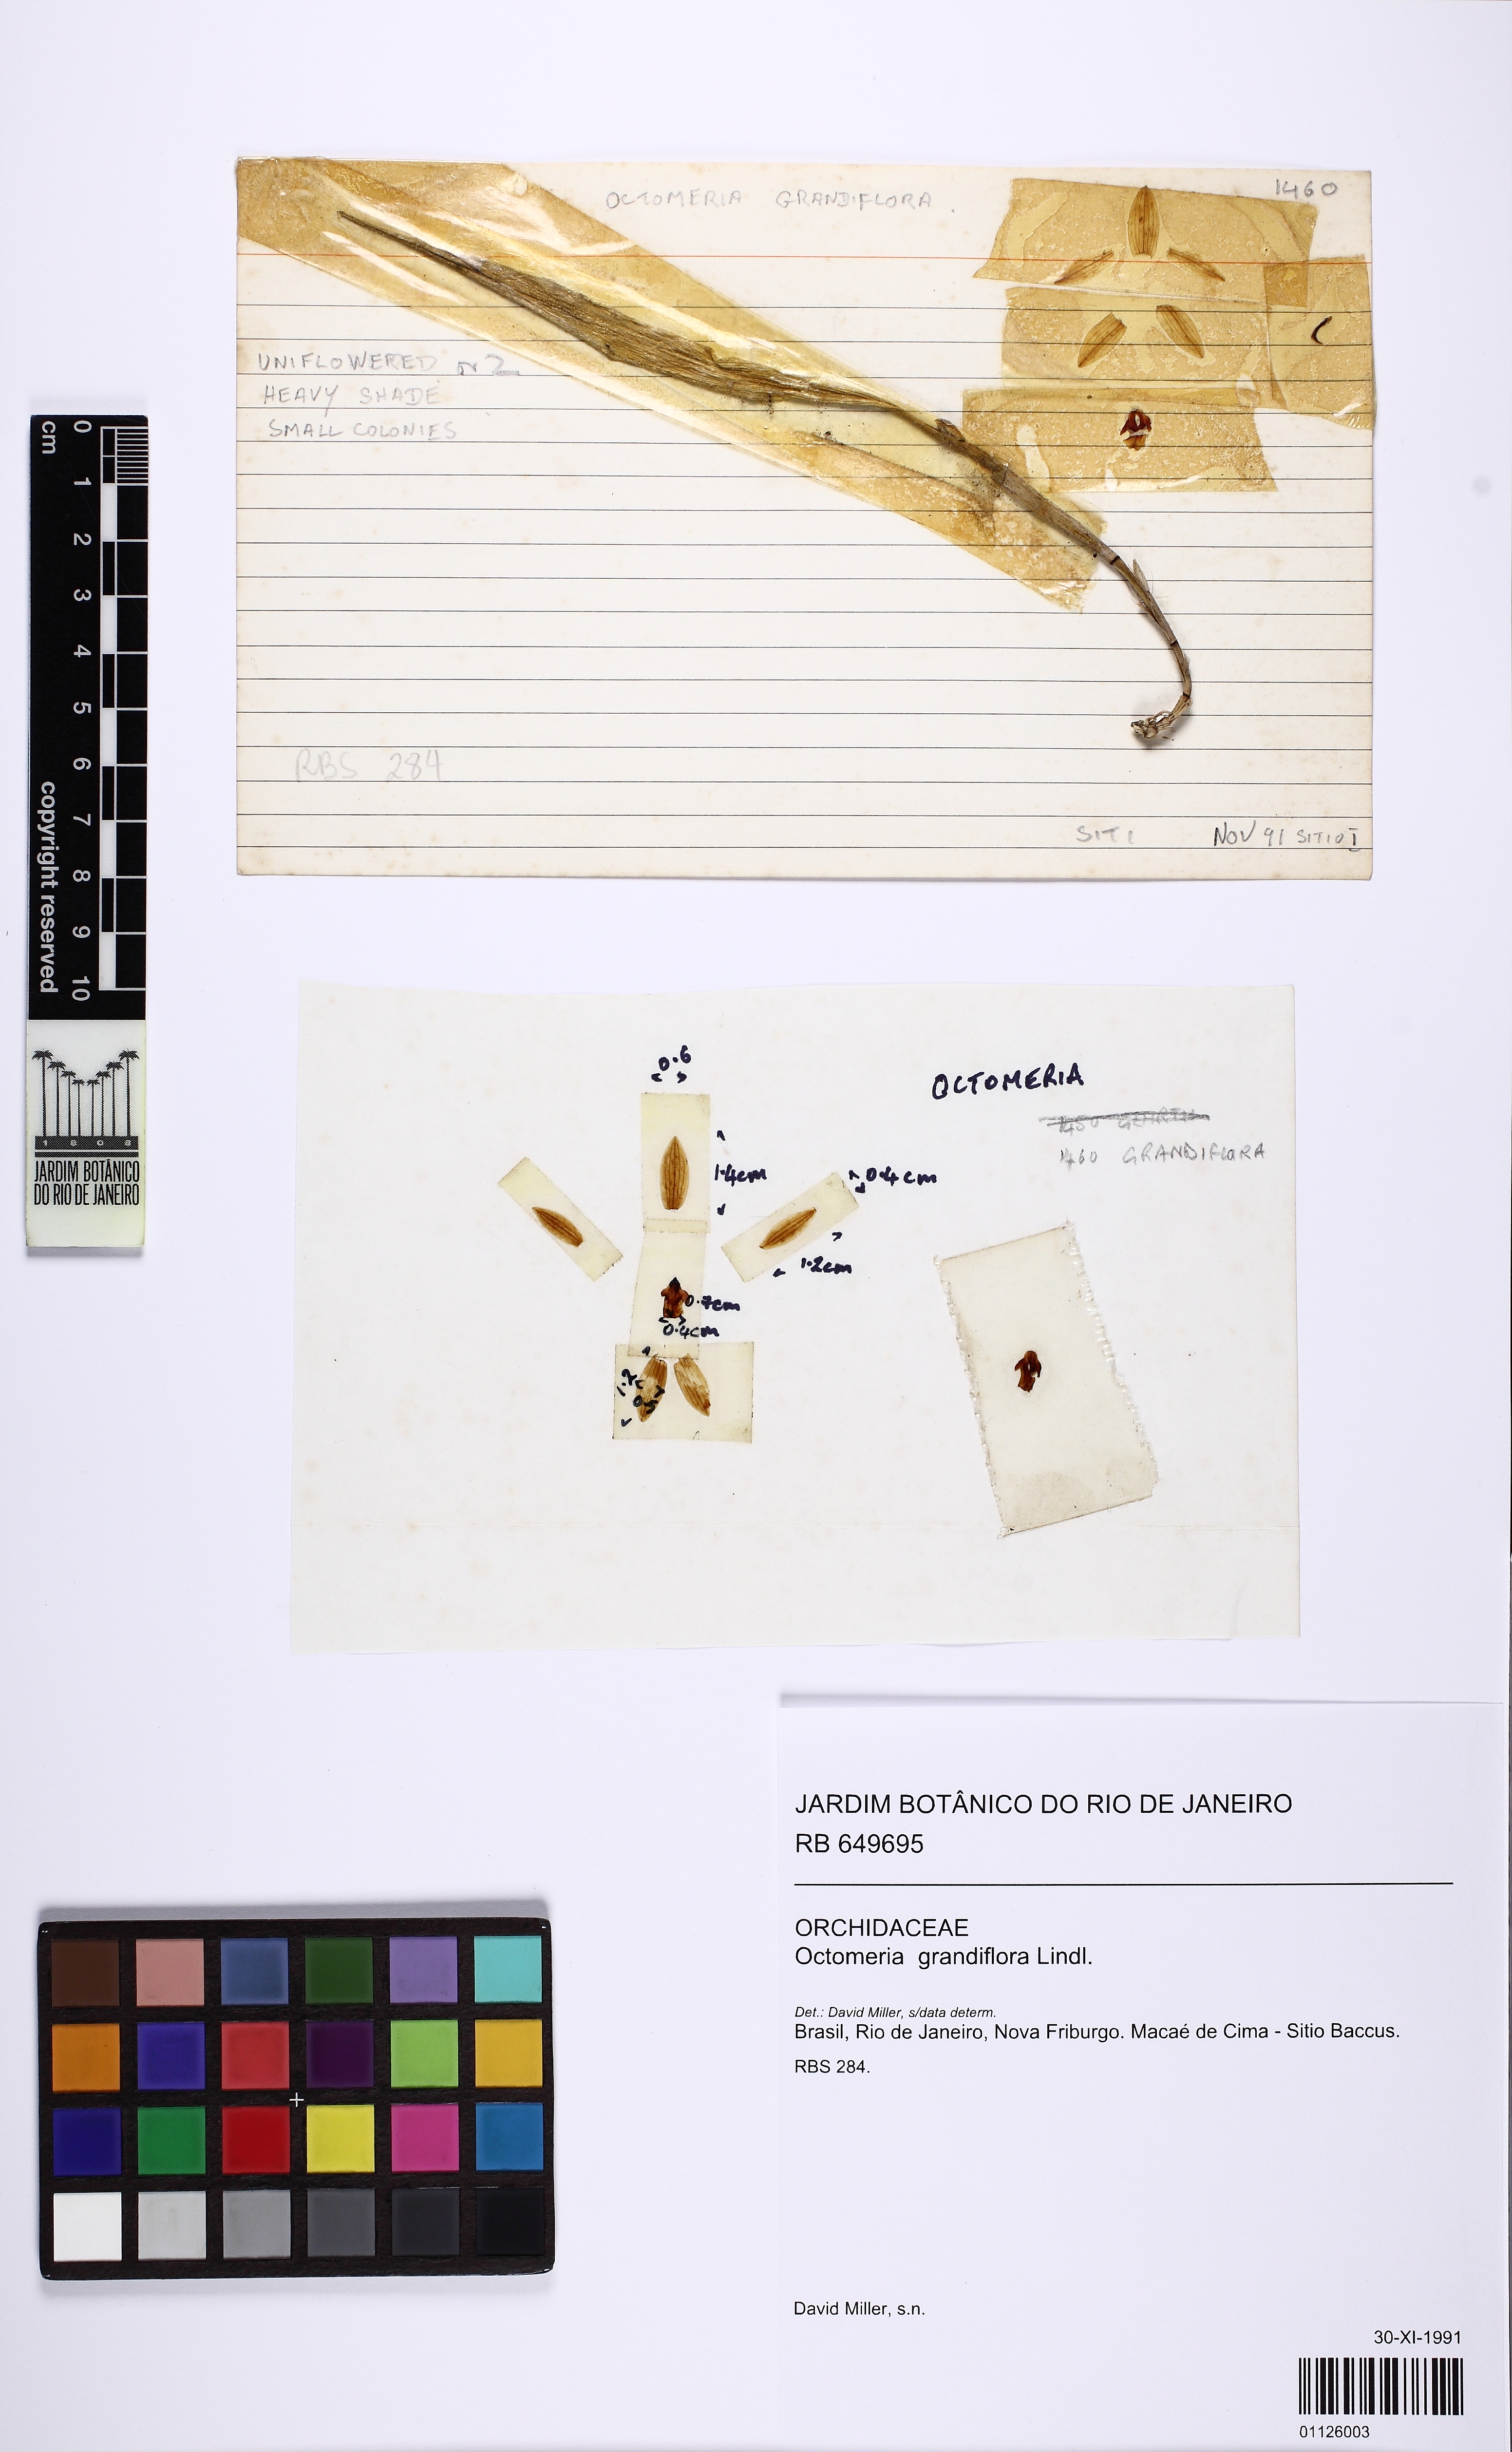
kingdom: Plantae
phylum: Tracheophyta
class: Liliopsida
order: Asparagales
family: Orchidaceae
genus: Octomeria
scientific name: Octomeria grandiflora
